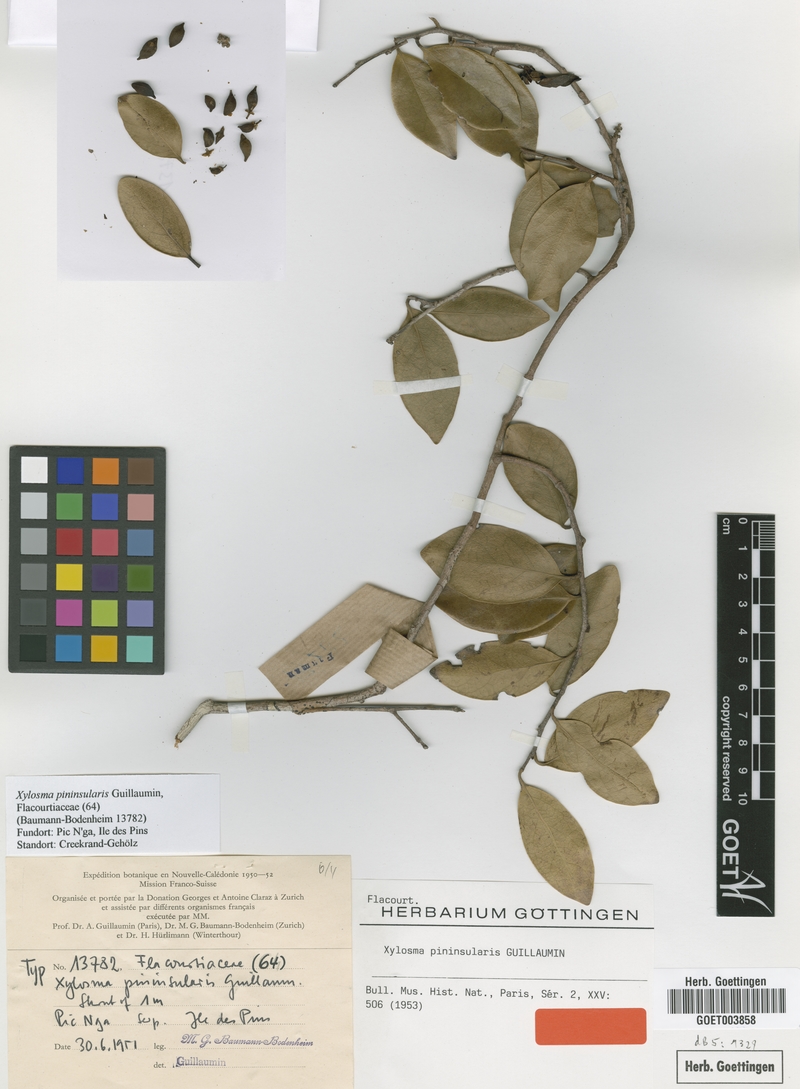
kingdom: Plantae
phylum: Tracheophyta
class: Magnoliopsida
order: Malpighiales
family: Salicaceae
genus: Xylosma
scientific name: Xylosma pininsularis
